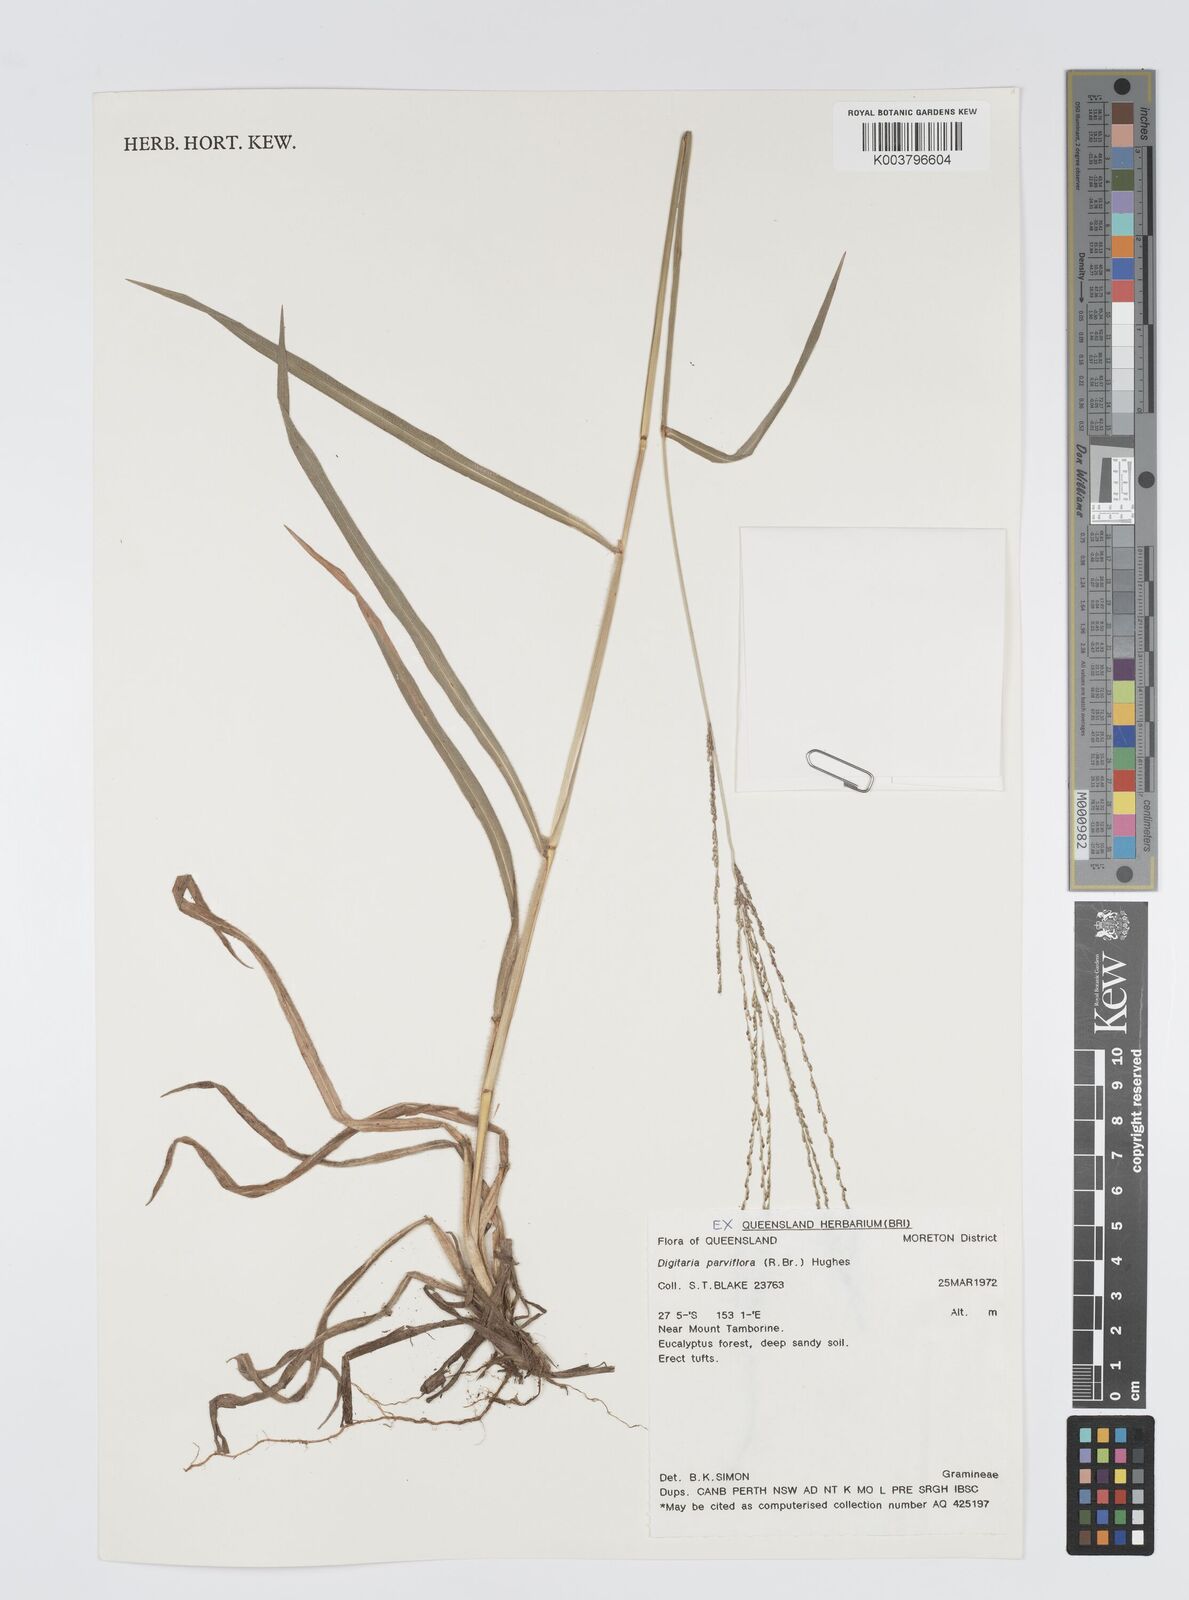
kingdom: Plantae
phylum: Tracheophyta
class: Liliopsida
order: Poales
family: Poaceae
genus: Digitaria
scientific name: Digitaria parviflora
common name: Small-flower finger grass
